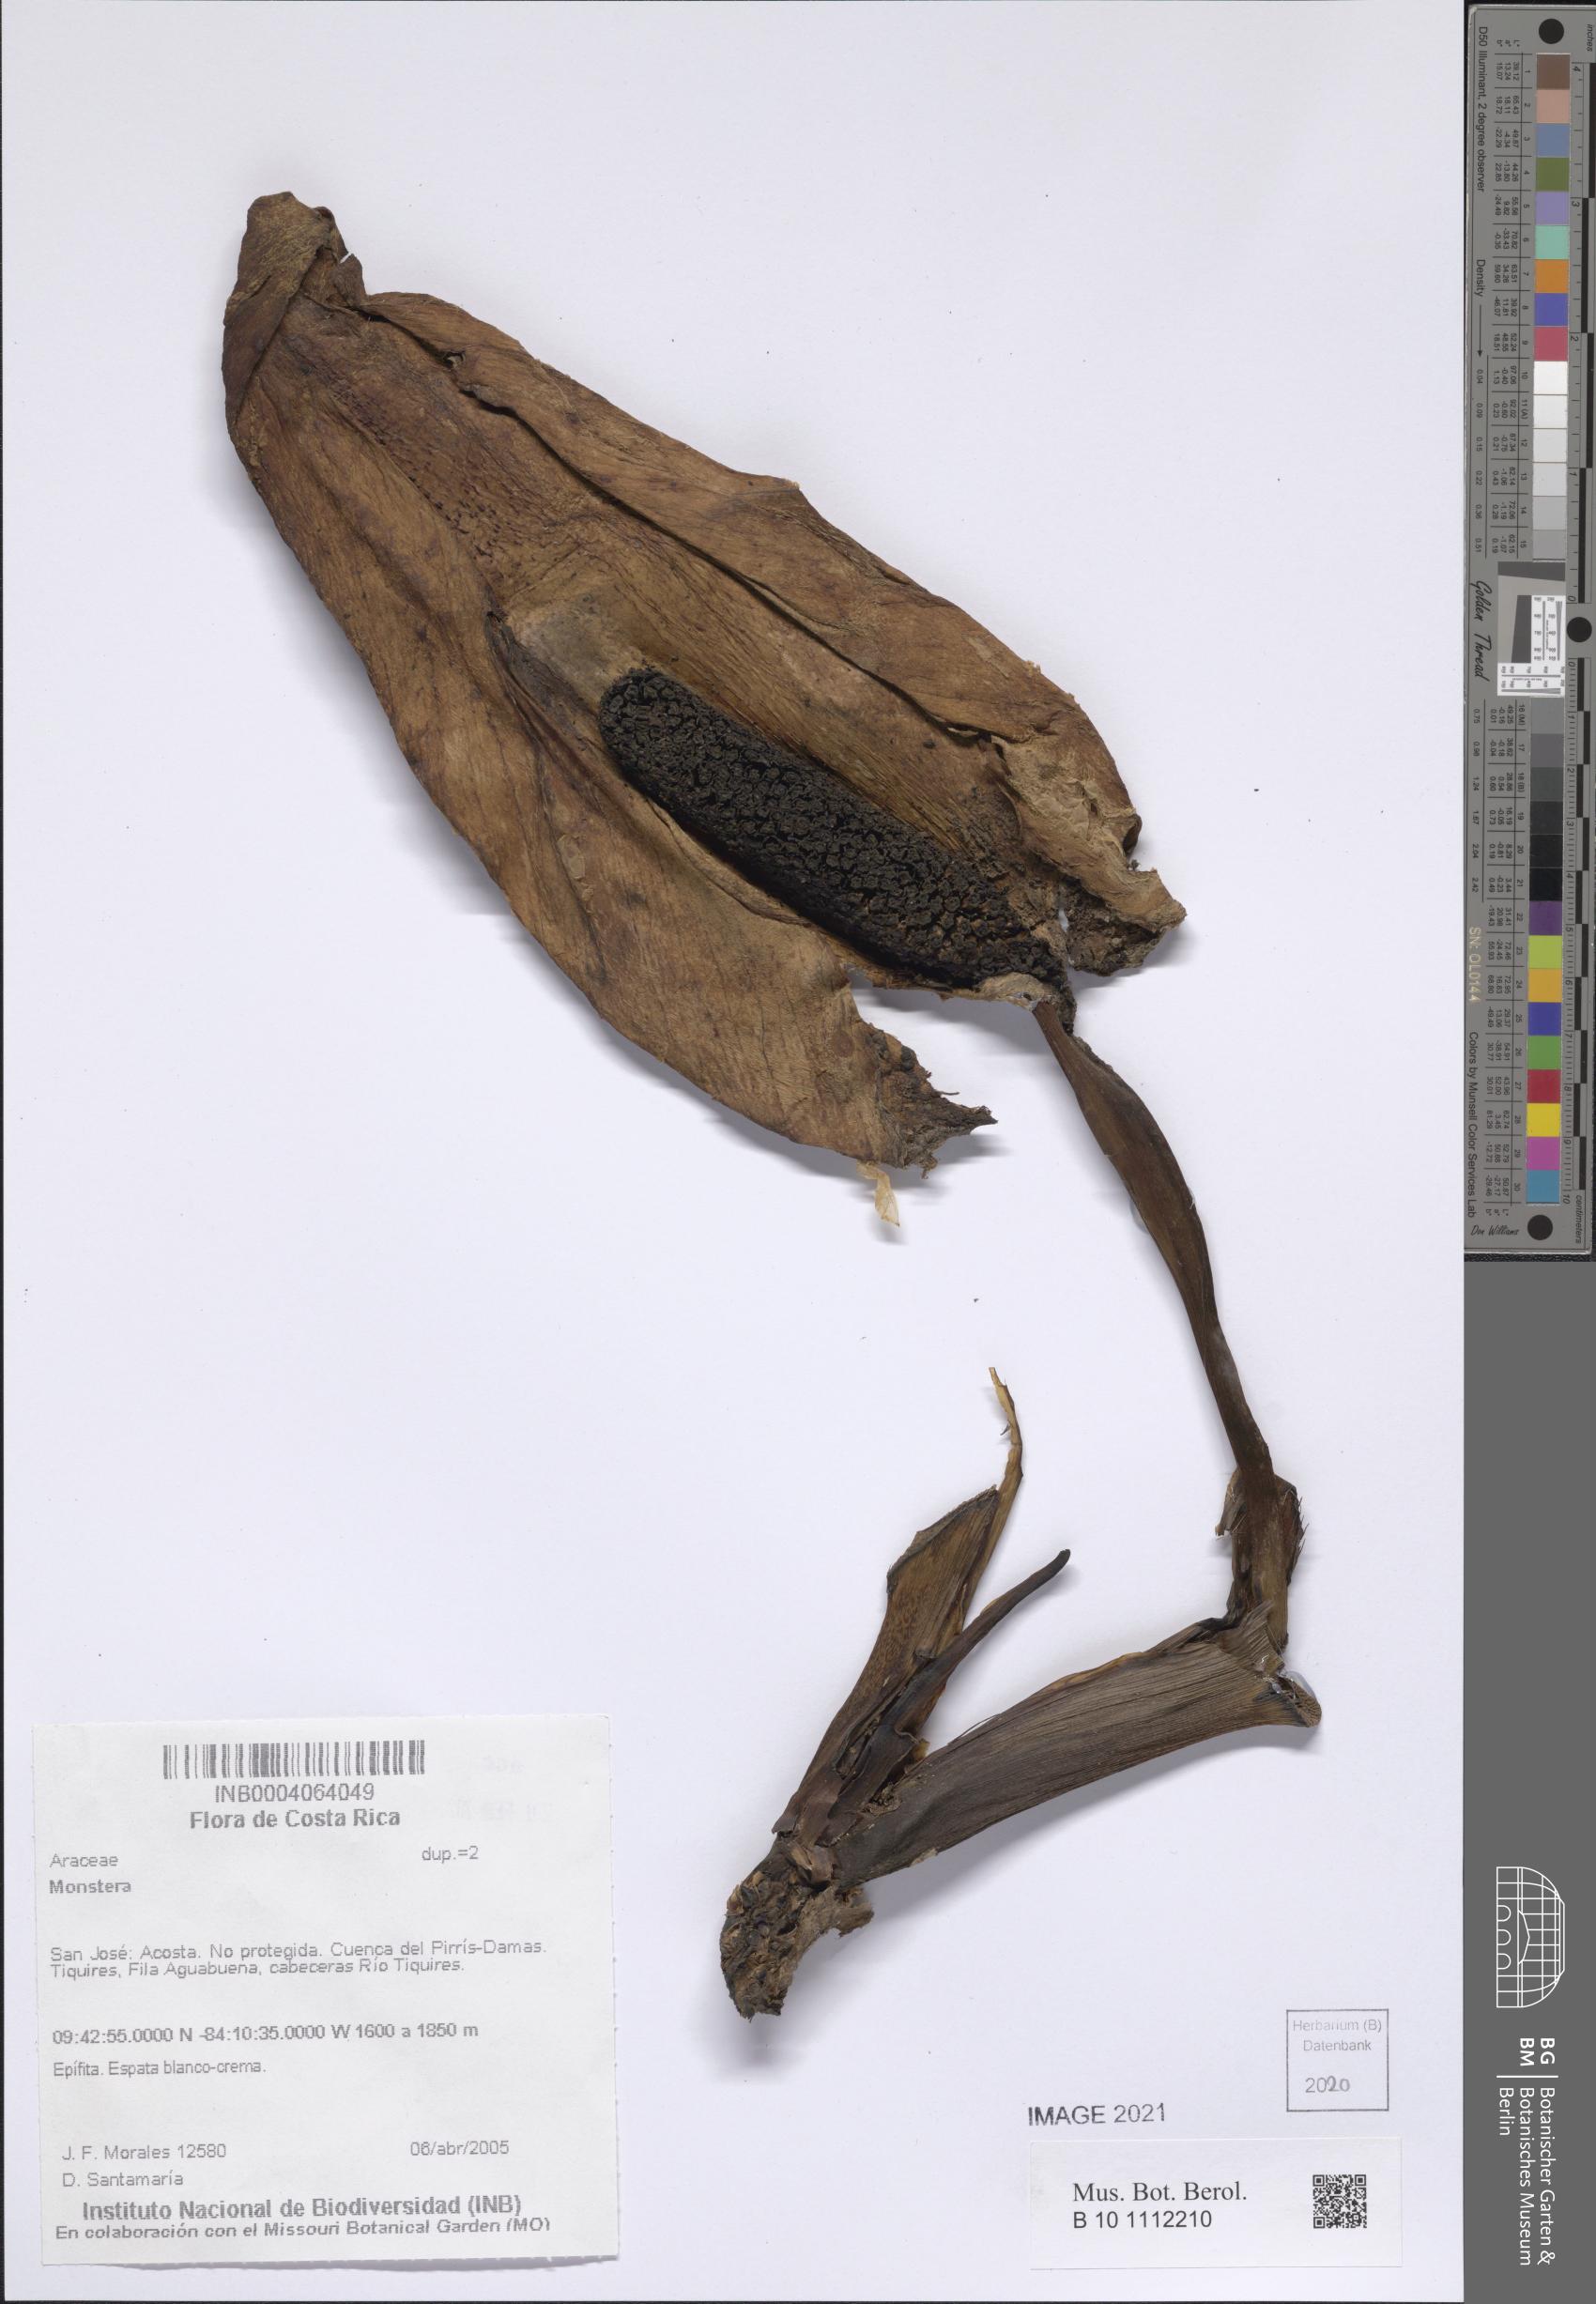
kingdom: Plantae
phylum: Tracheophyta
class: Liliopsida
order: Alismatales
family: Araceae
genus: Monstera
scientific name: Monstera
